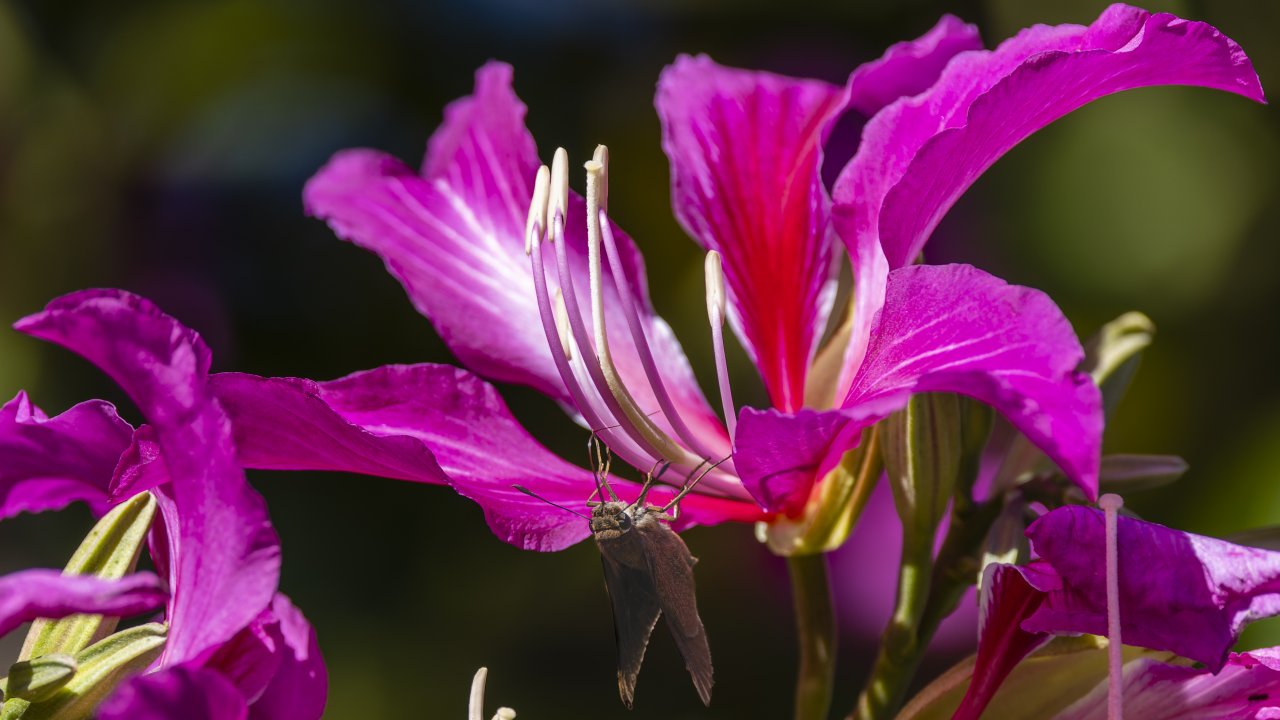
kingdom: Animalia
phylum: Arthropoda
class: Insecta
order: Lepidoptera
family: Hesperiidae
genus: Panoquina
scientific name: Panoquina ocola
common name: Ocola Skipper
